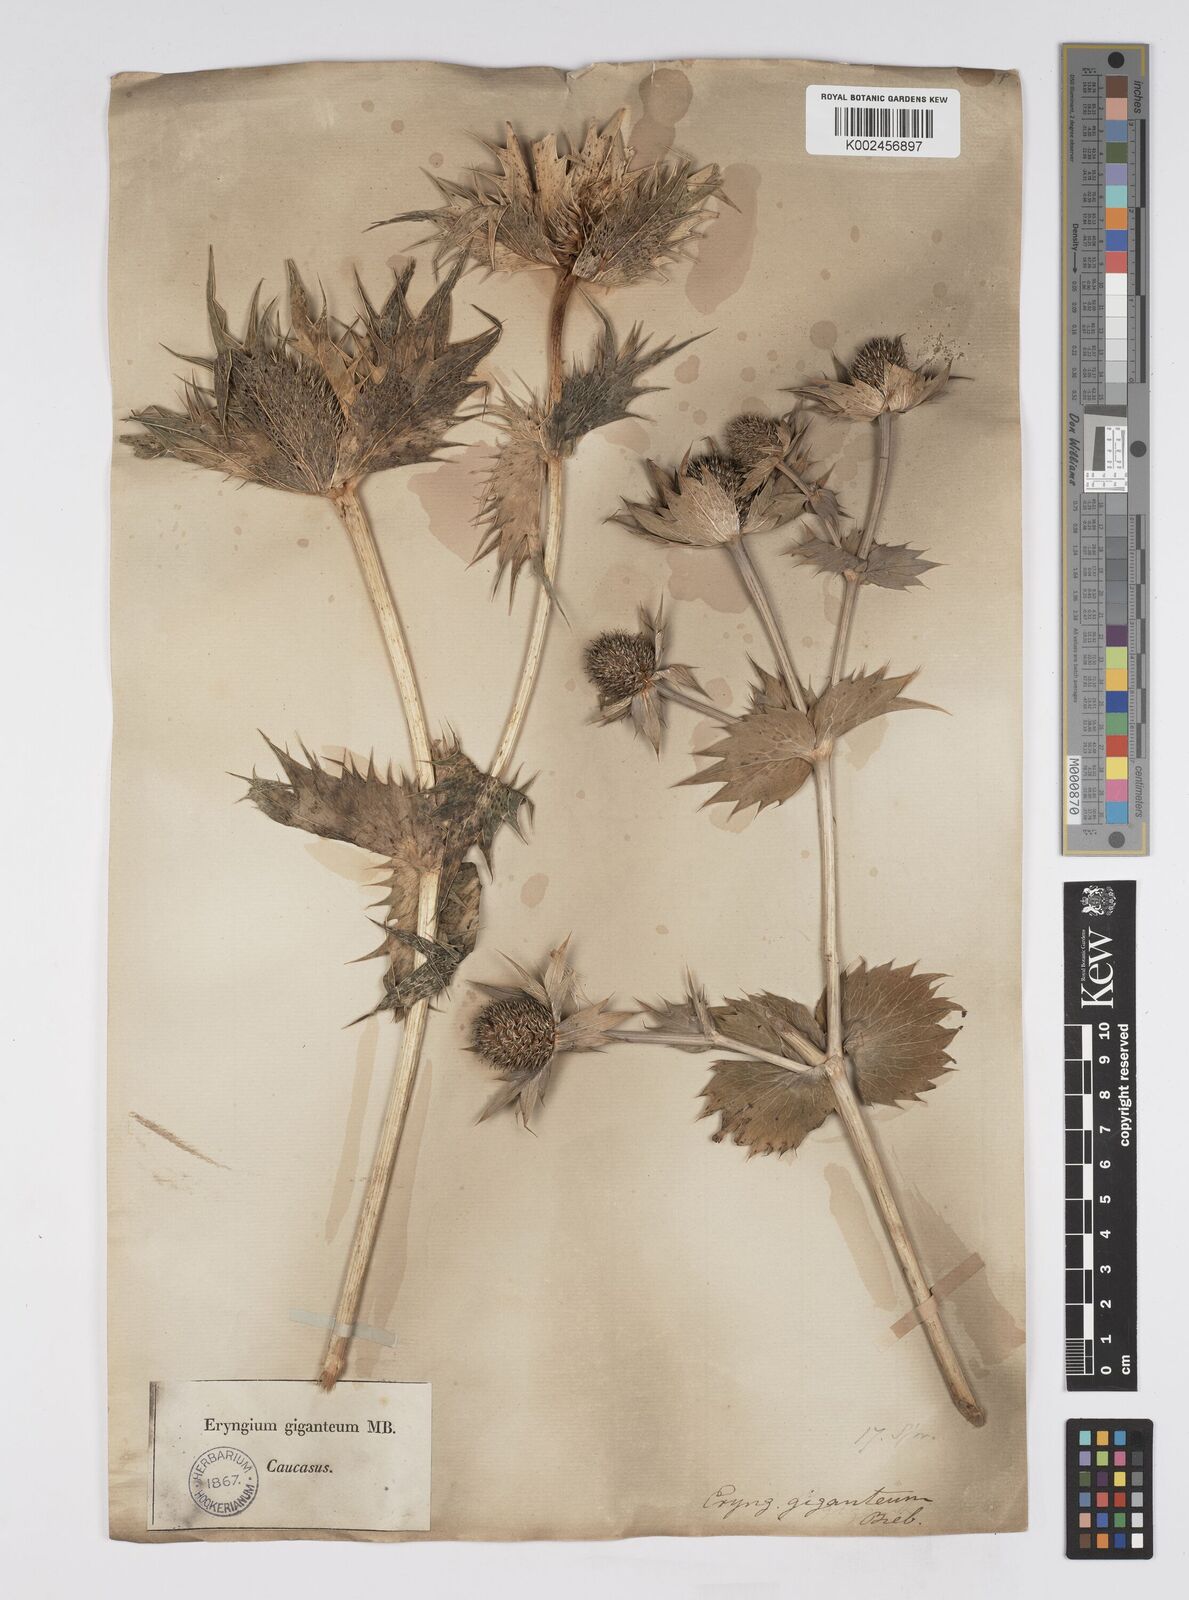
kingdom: Plantae
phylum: Tracheophyta
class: Magnoliopsida
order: Apiales
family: Apiaceae
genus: Eryngium
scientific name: Eryngium giganteum
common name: Tall eryngo
